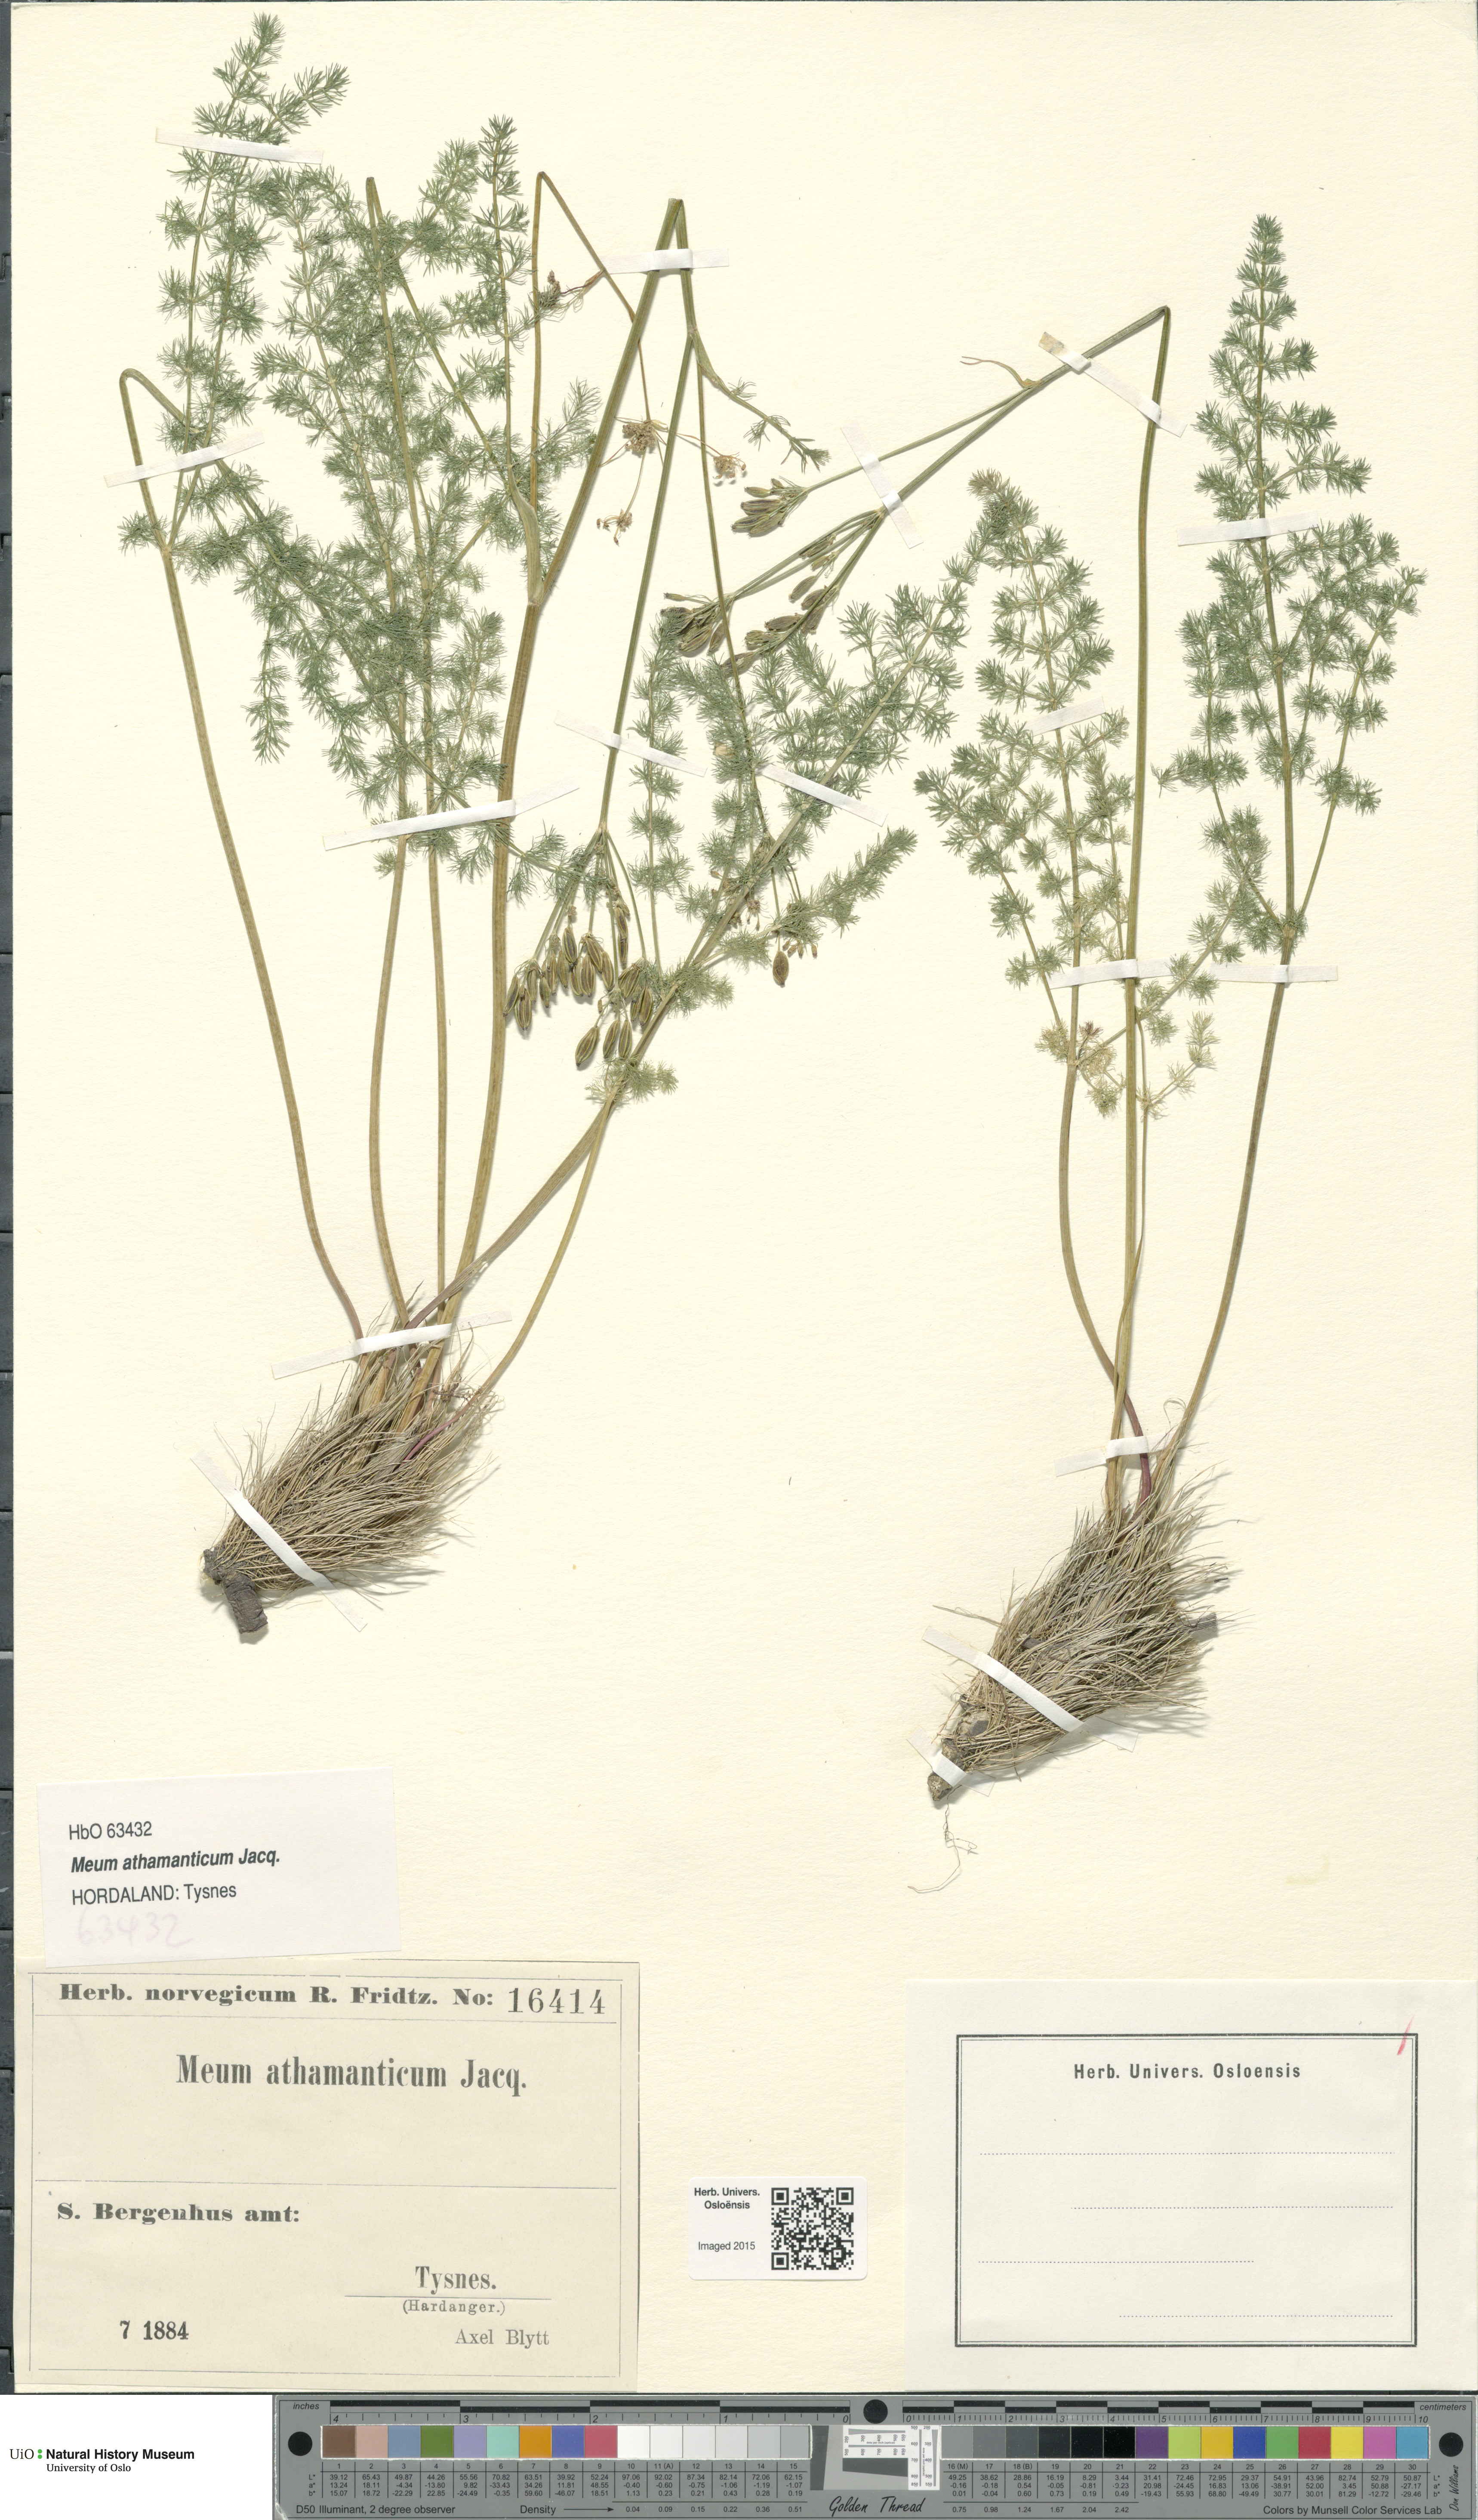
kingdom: Plantae
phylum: Tracheophyta
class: Magnoliopsida
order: Apiales
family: Apiaceae
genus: Meum
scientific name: Meum athamanticum
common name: Spignel
